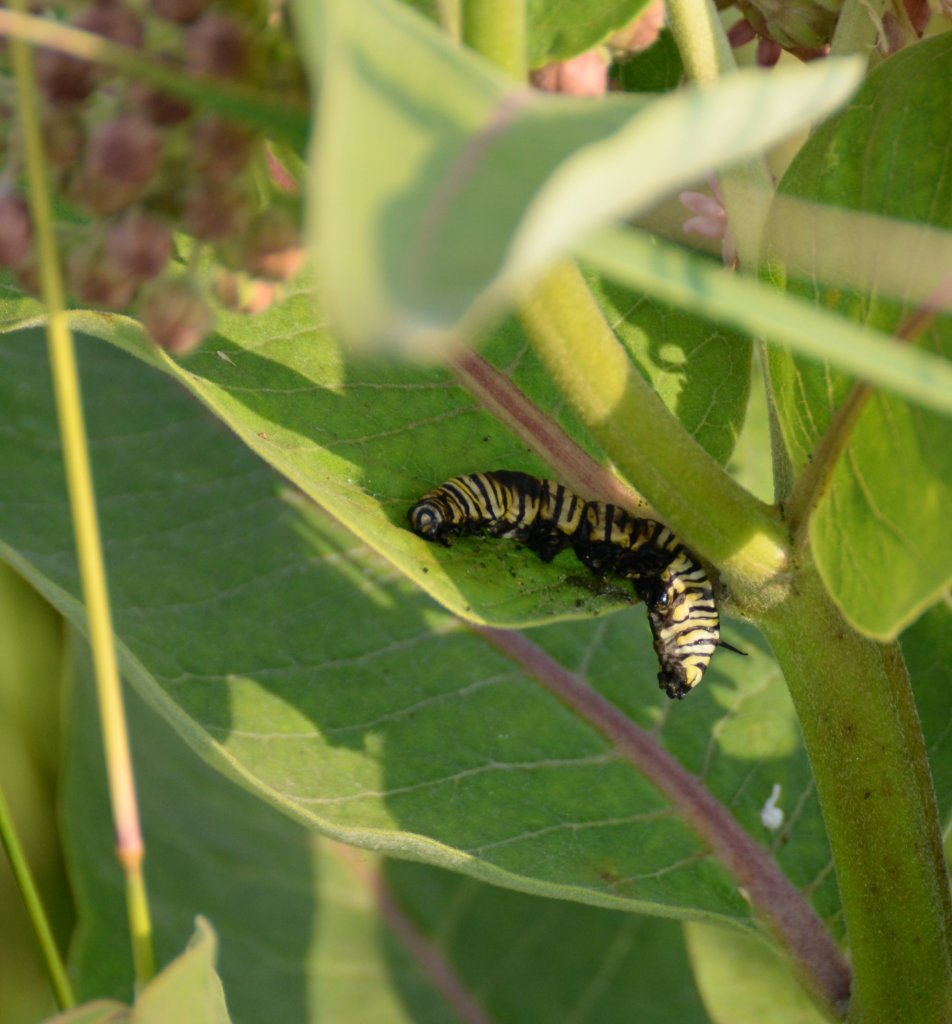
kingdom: Animalia
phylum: Arthropoda
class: Insecta
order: Lepidoptera
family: Nymphalidae
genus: Danaus
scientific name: Danaus plexippus
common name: Monarch
